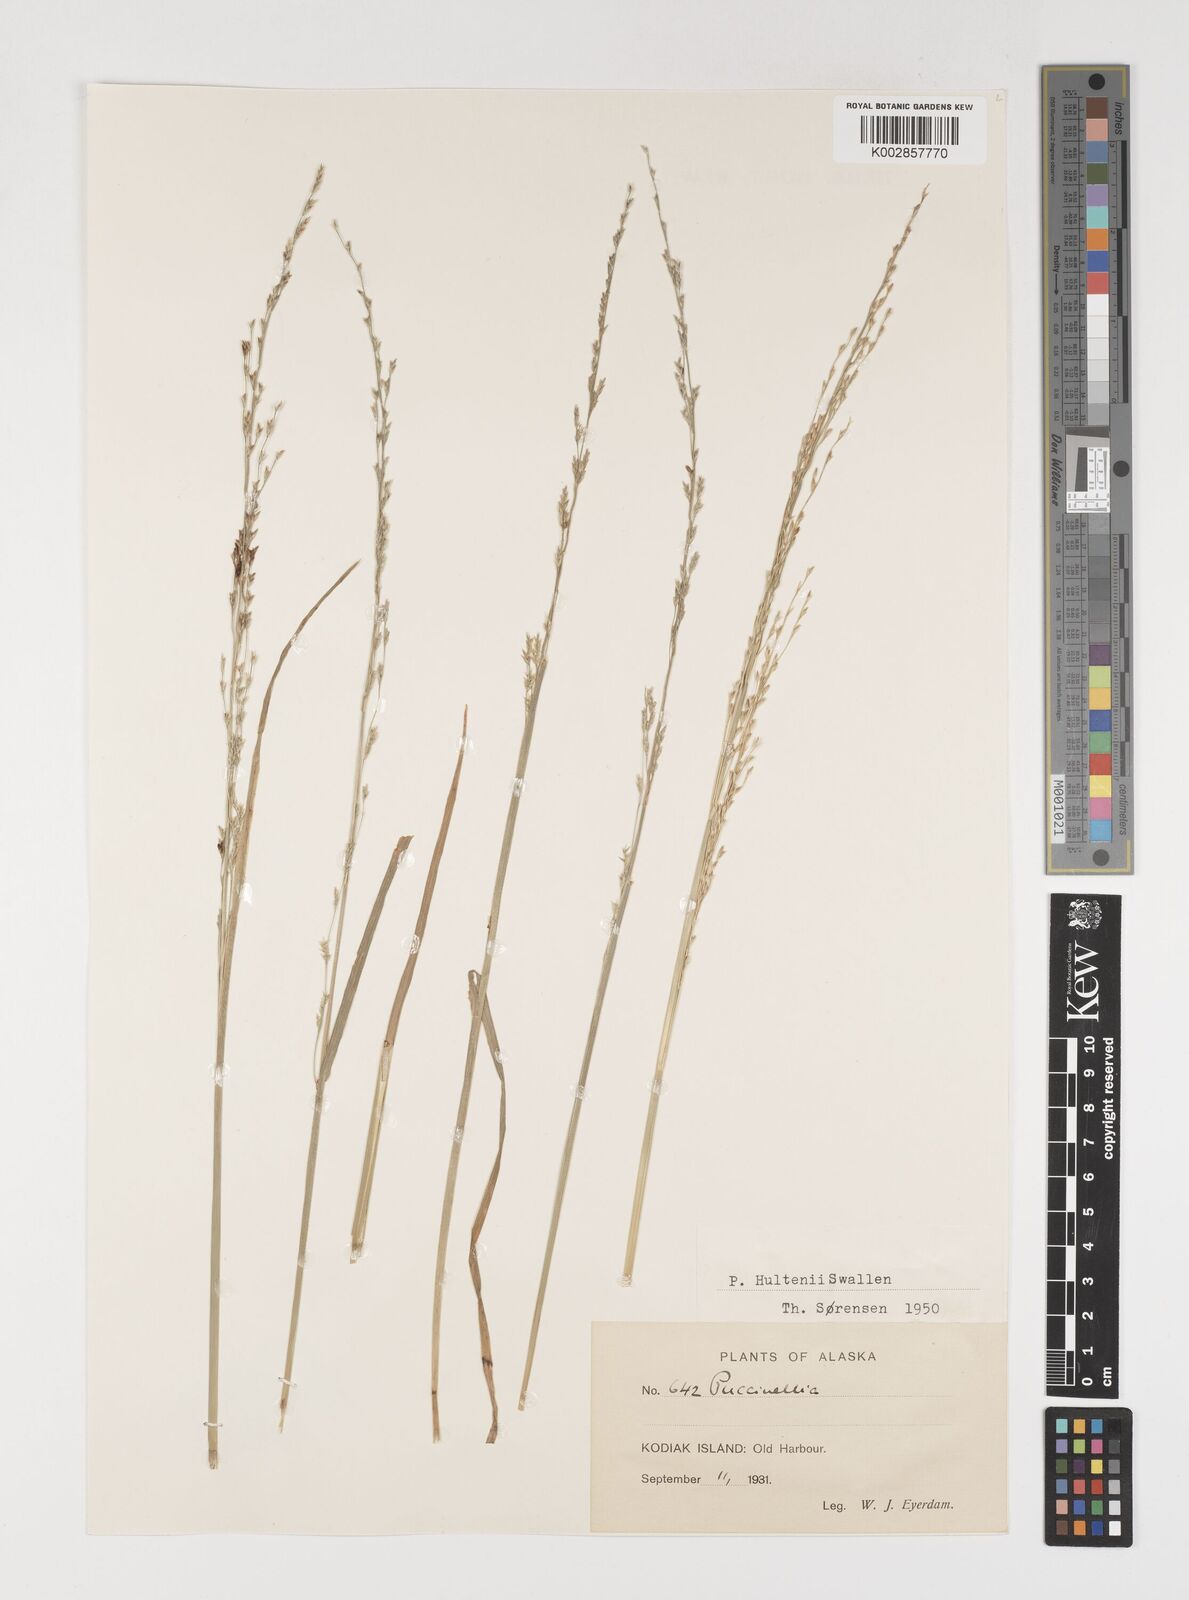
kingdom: Plantae
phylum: Tracheophyta
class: Liliopsida
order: Poales
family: Poaceae
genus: Puccinellia
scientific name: Puccinellia pumila
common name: Dwarf alkaligrass
